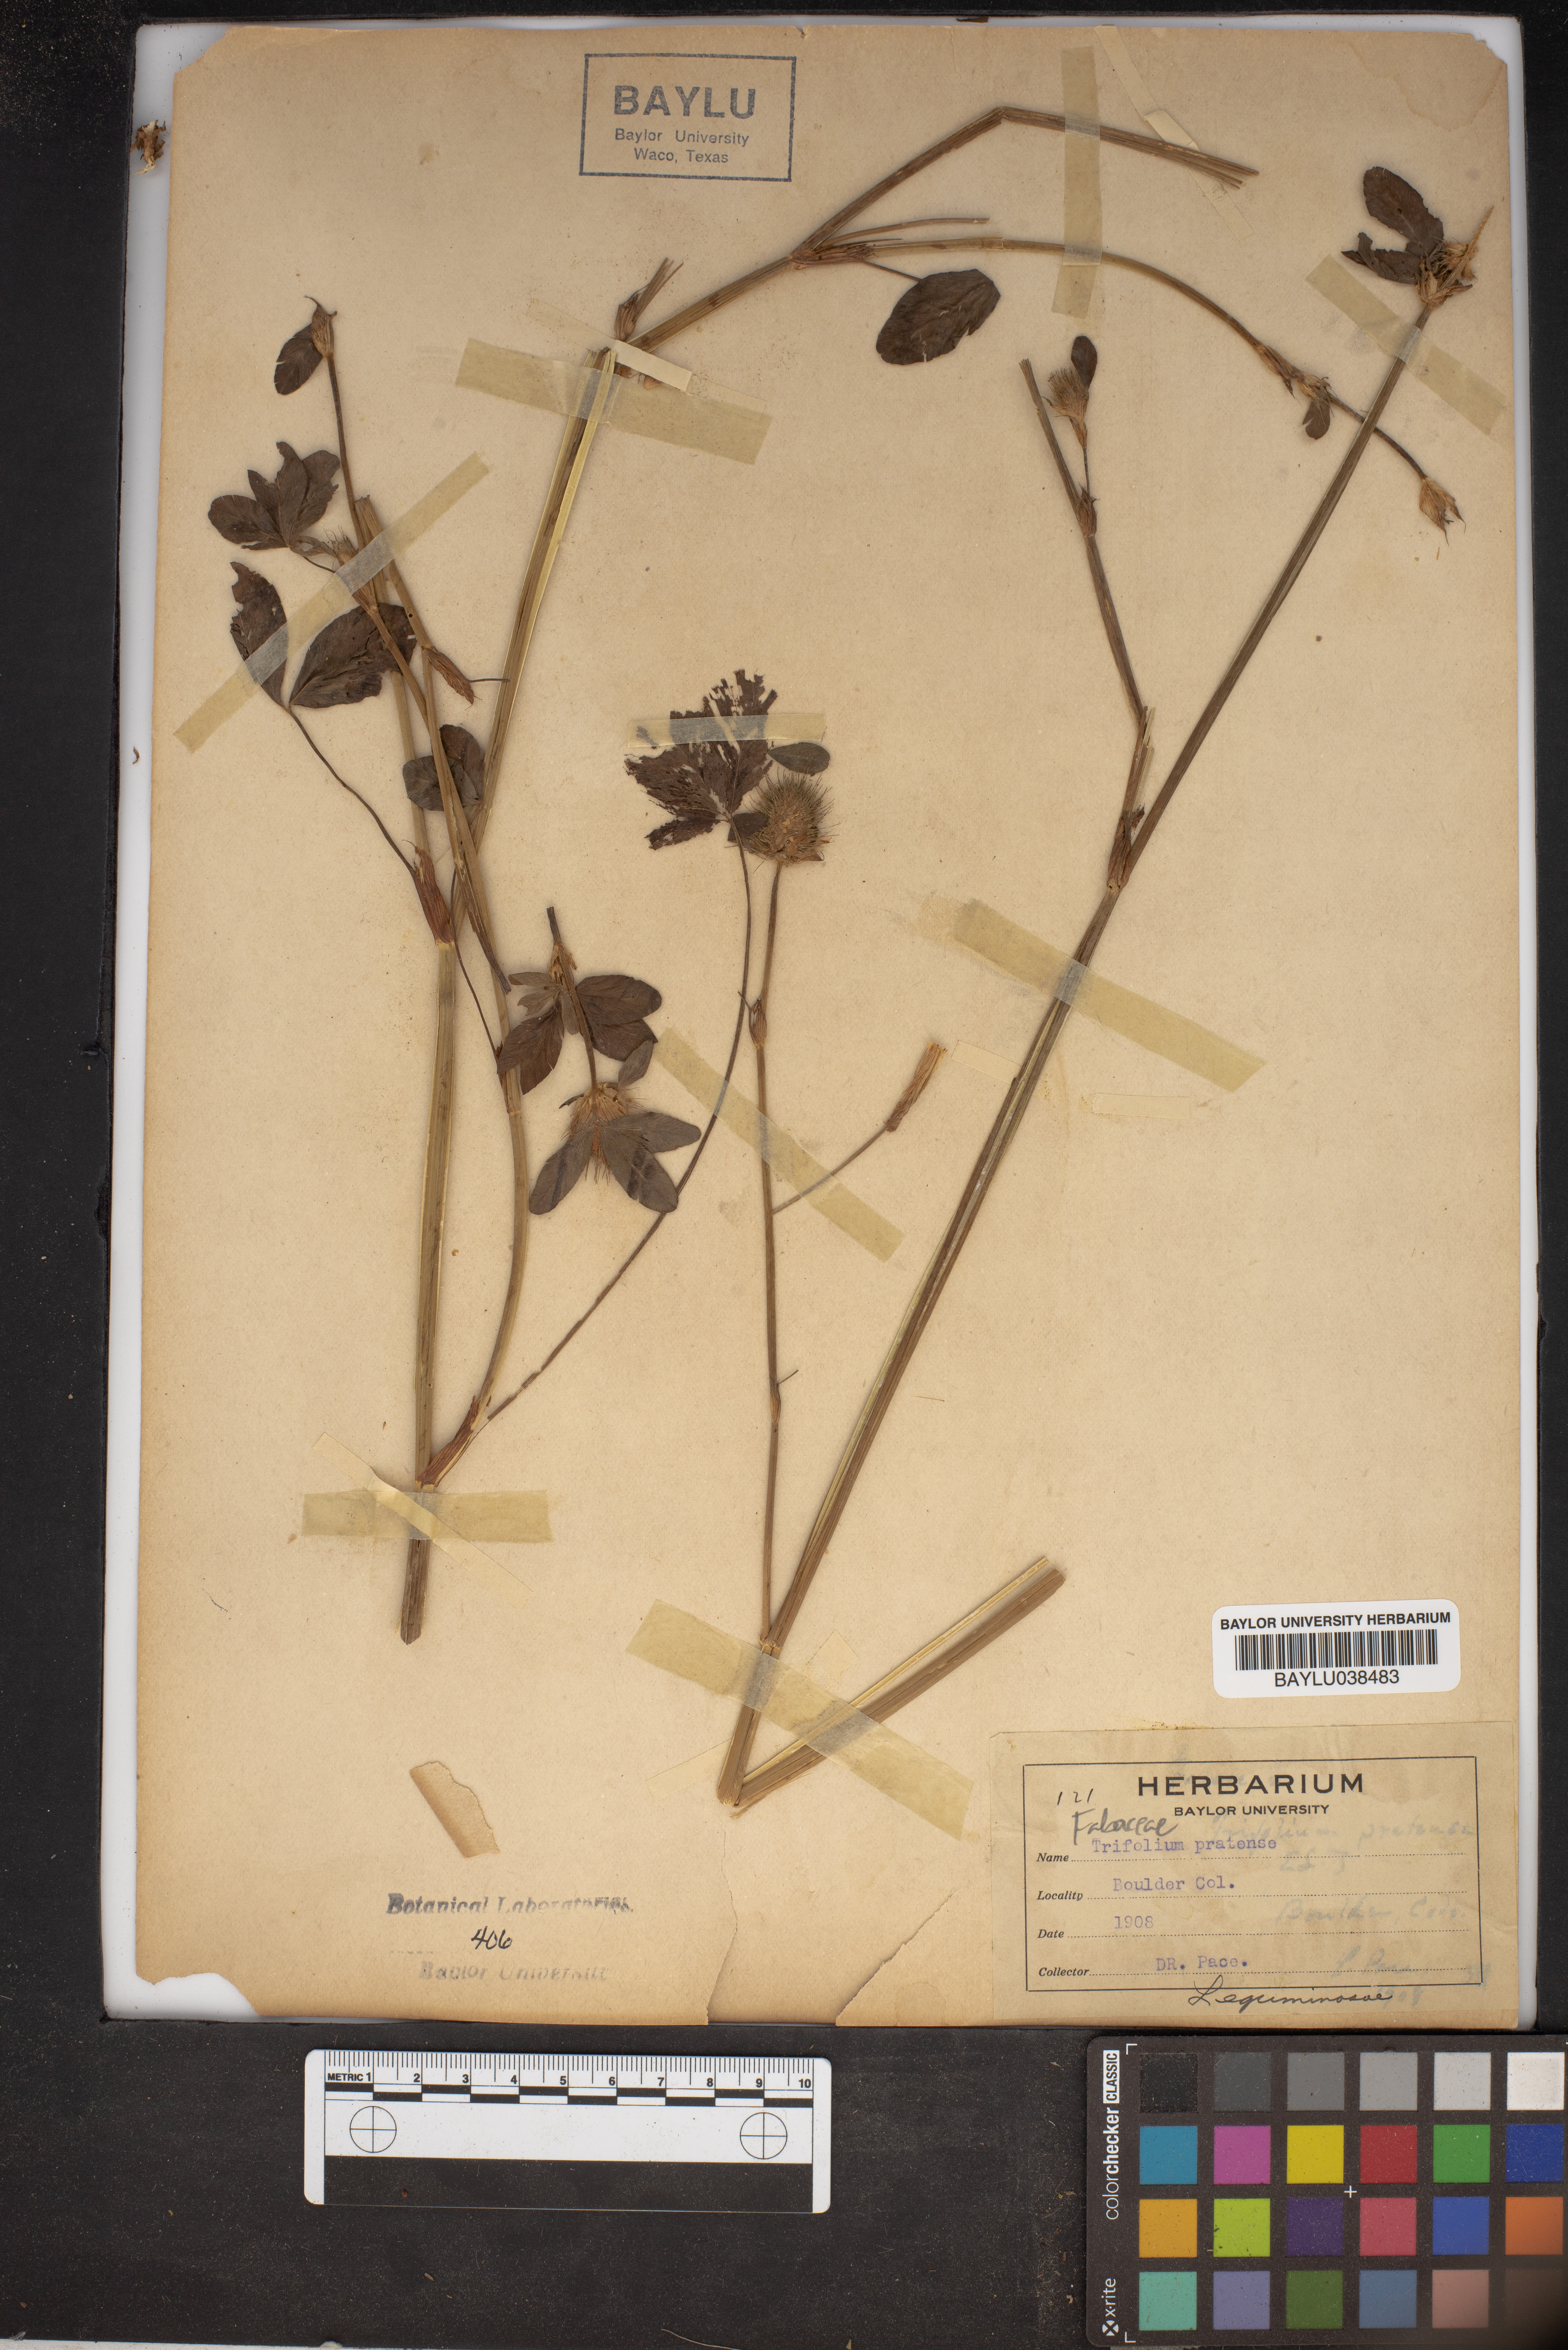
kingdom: Plantae
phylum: Tracheophyta
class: Magnoliopsida
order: Fabales
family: Fabaceae
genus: Trifolium
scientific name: Trifolium pratense
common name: Red clover
